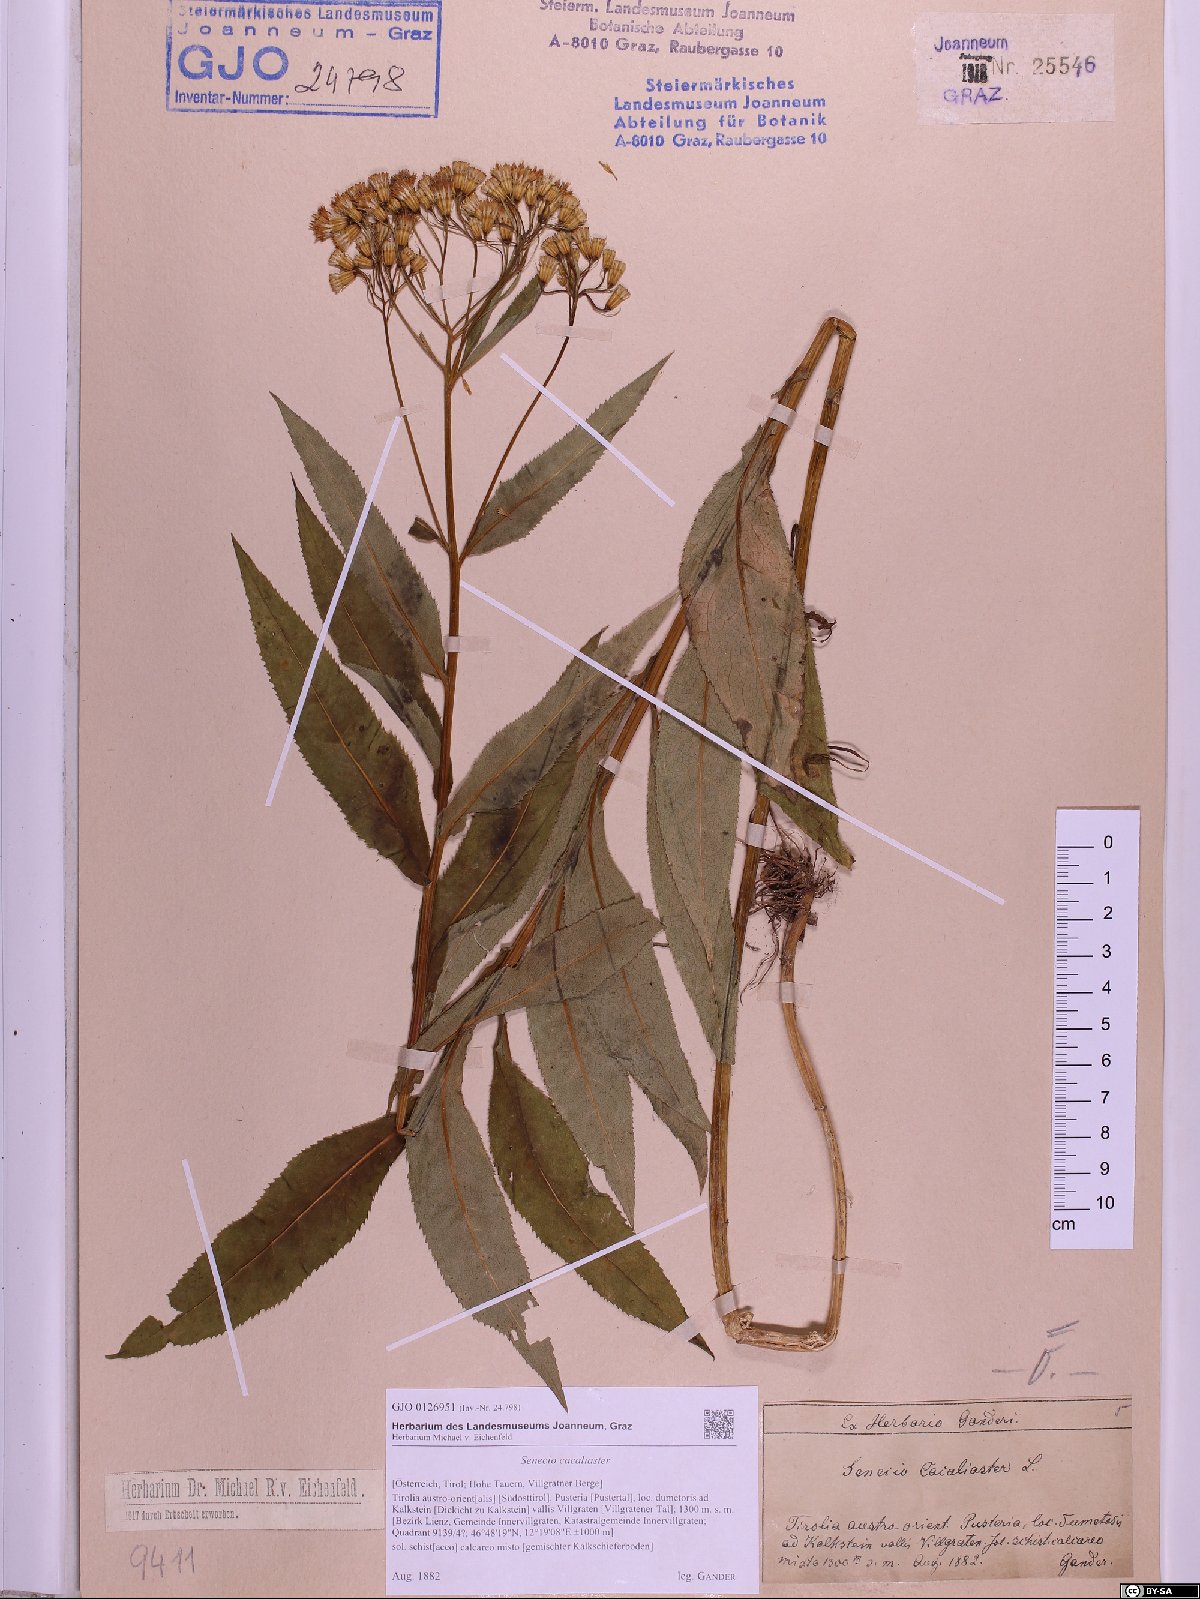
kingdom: Plantae
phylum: Tracheophyta
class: Magnoliopsida
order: Asterales
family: Asteraceae
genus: Senecio
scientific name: Senecio cacaliaster
